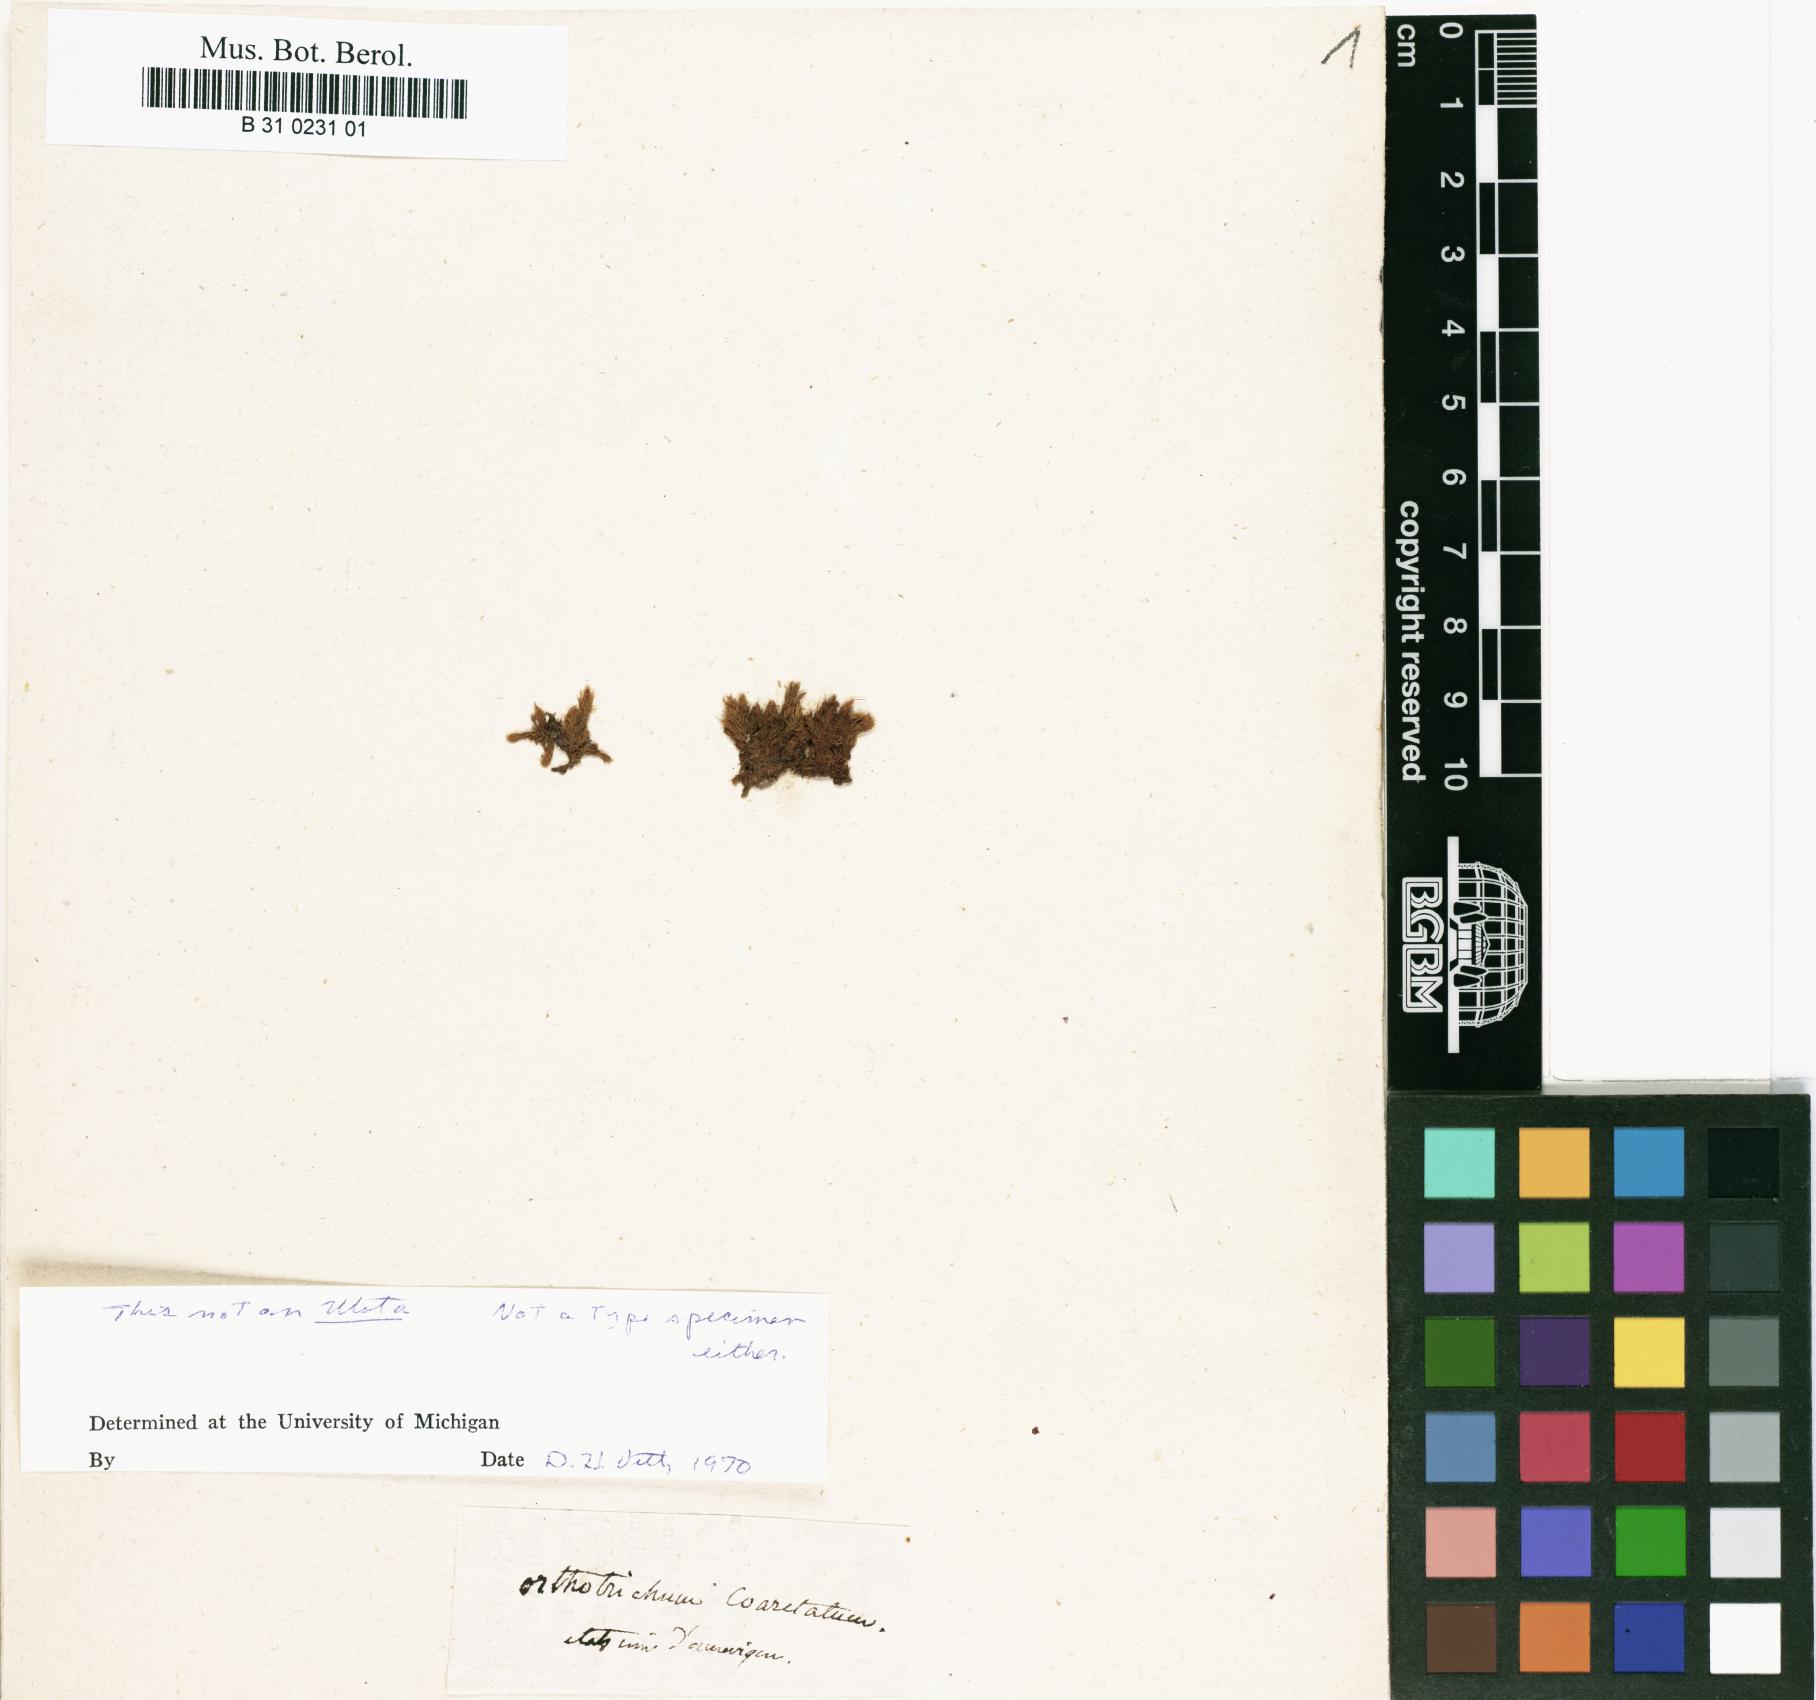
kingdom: Plantae
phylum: Bryophyta
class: Bryopsida
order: Orthotrichales
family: Orthotrichaceae
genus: Ulota
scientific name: Ulota coarctata
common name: Club pincushion moss
